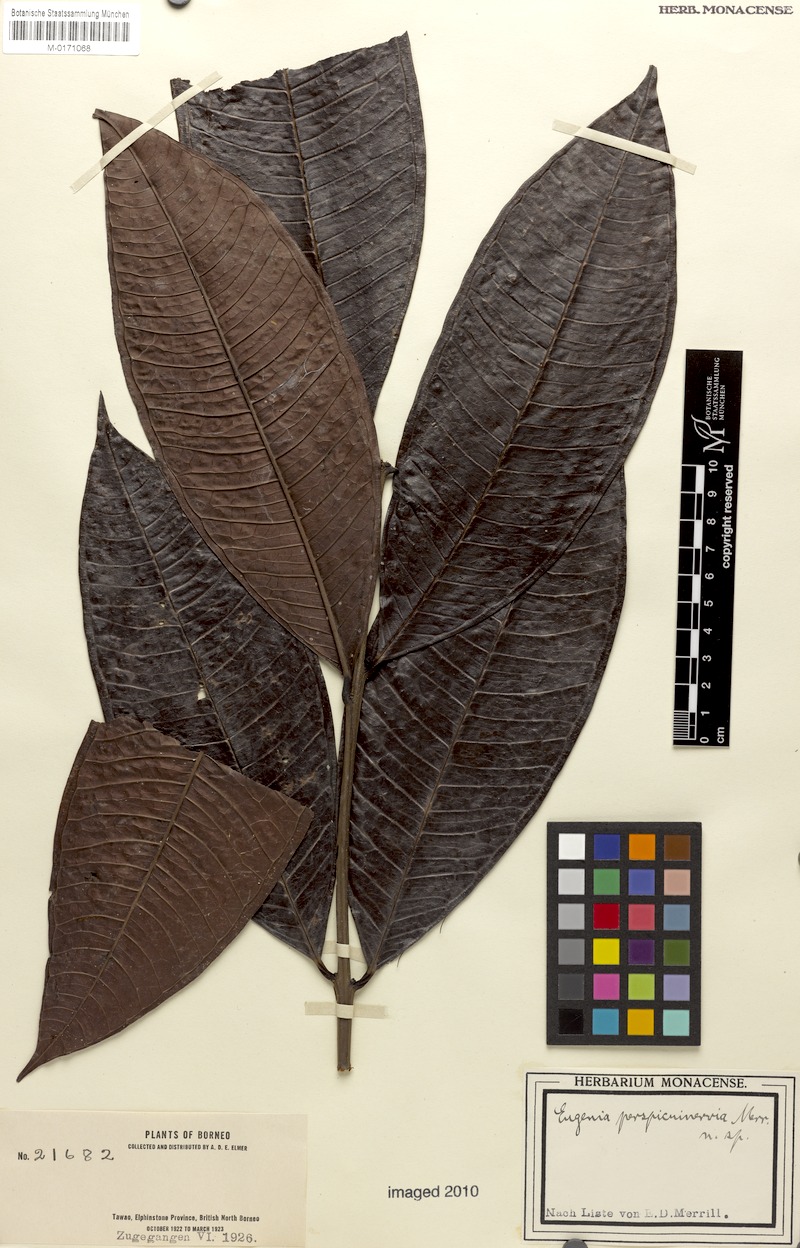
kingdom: Plantae
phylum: Tracheophyta
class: Magnoliopsida
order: Myrtales
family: Myrtaceae
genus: Syzygium
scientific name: Syzygium perspicuinervium
